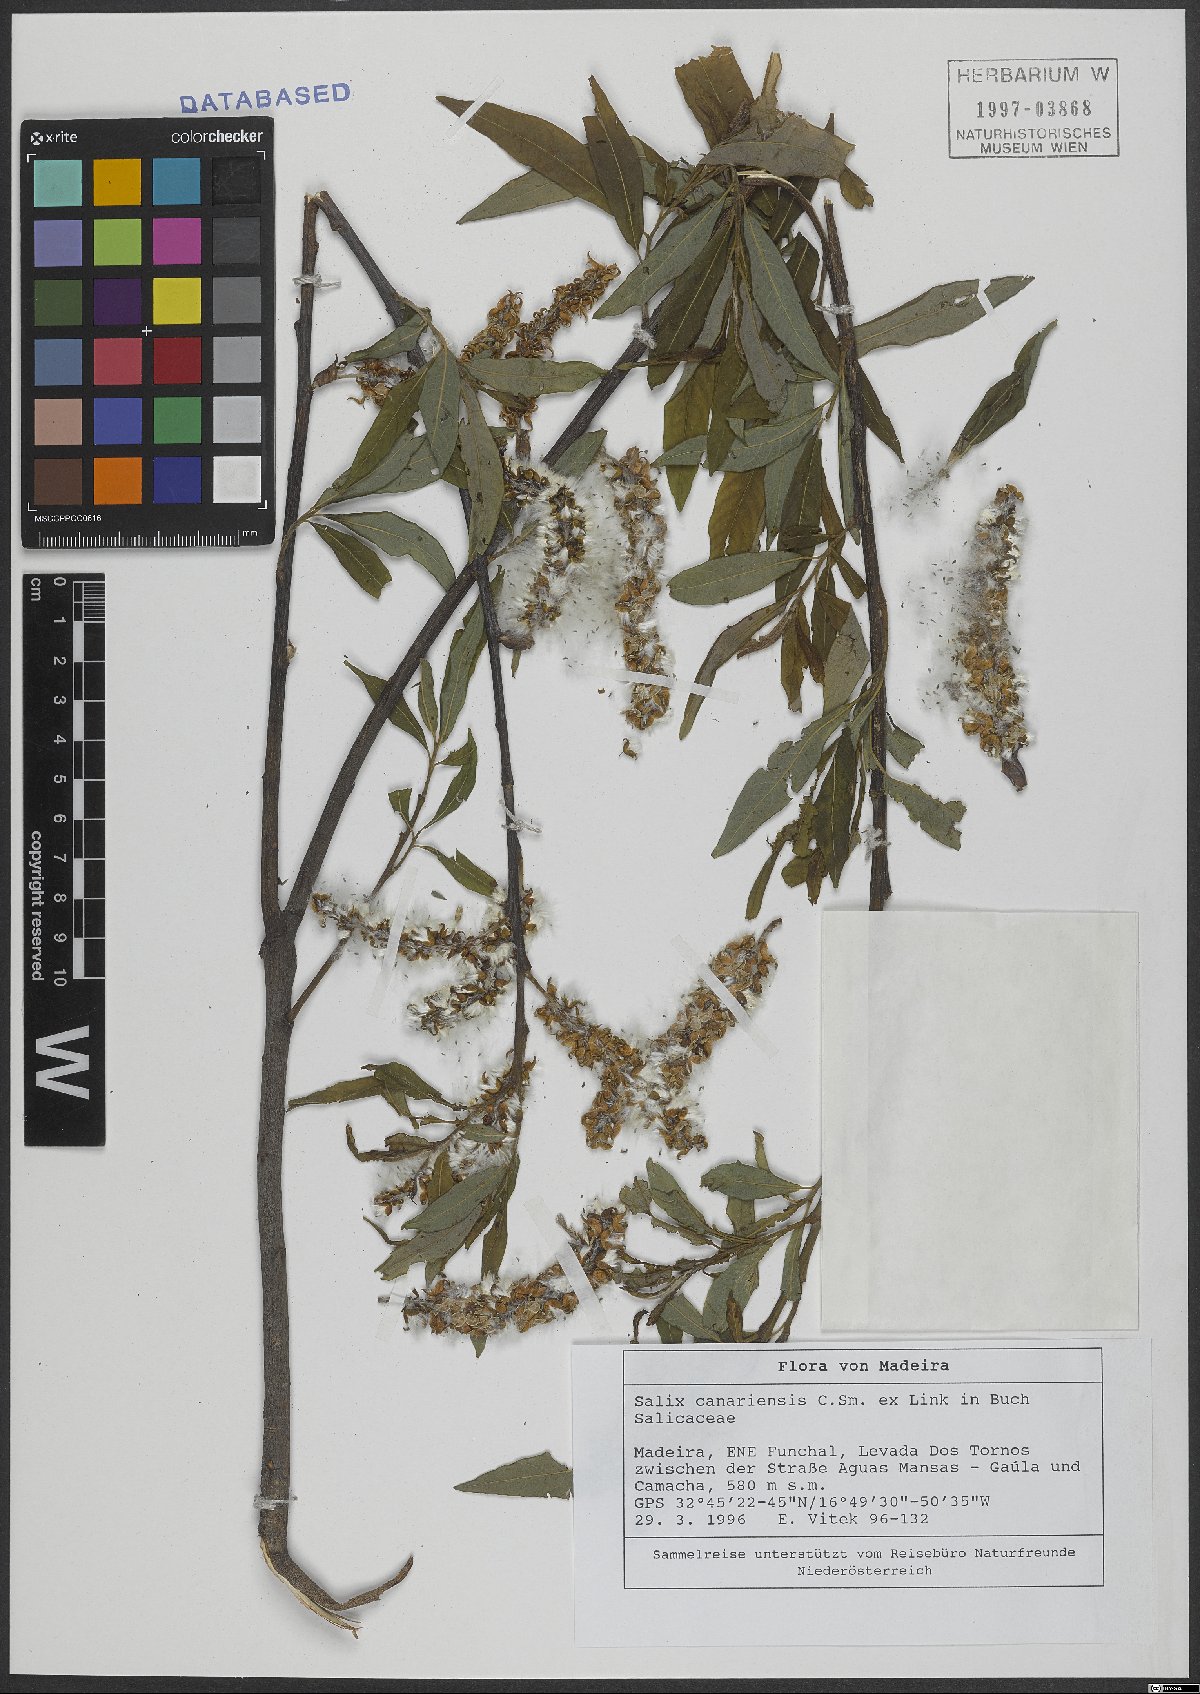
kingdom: Plantae
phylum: Tracheophyta
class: Magnoliopsida
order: Malpighiales
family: Salicaceae
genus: Salix
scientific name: Salix canariensis
